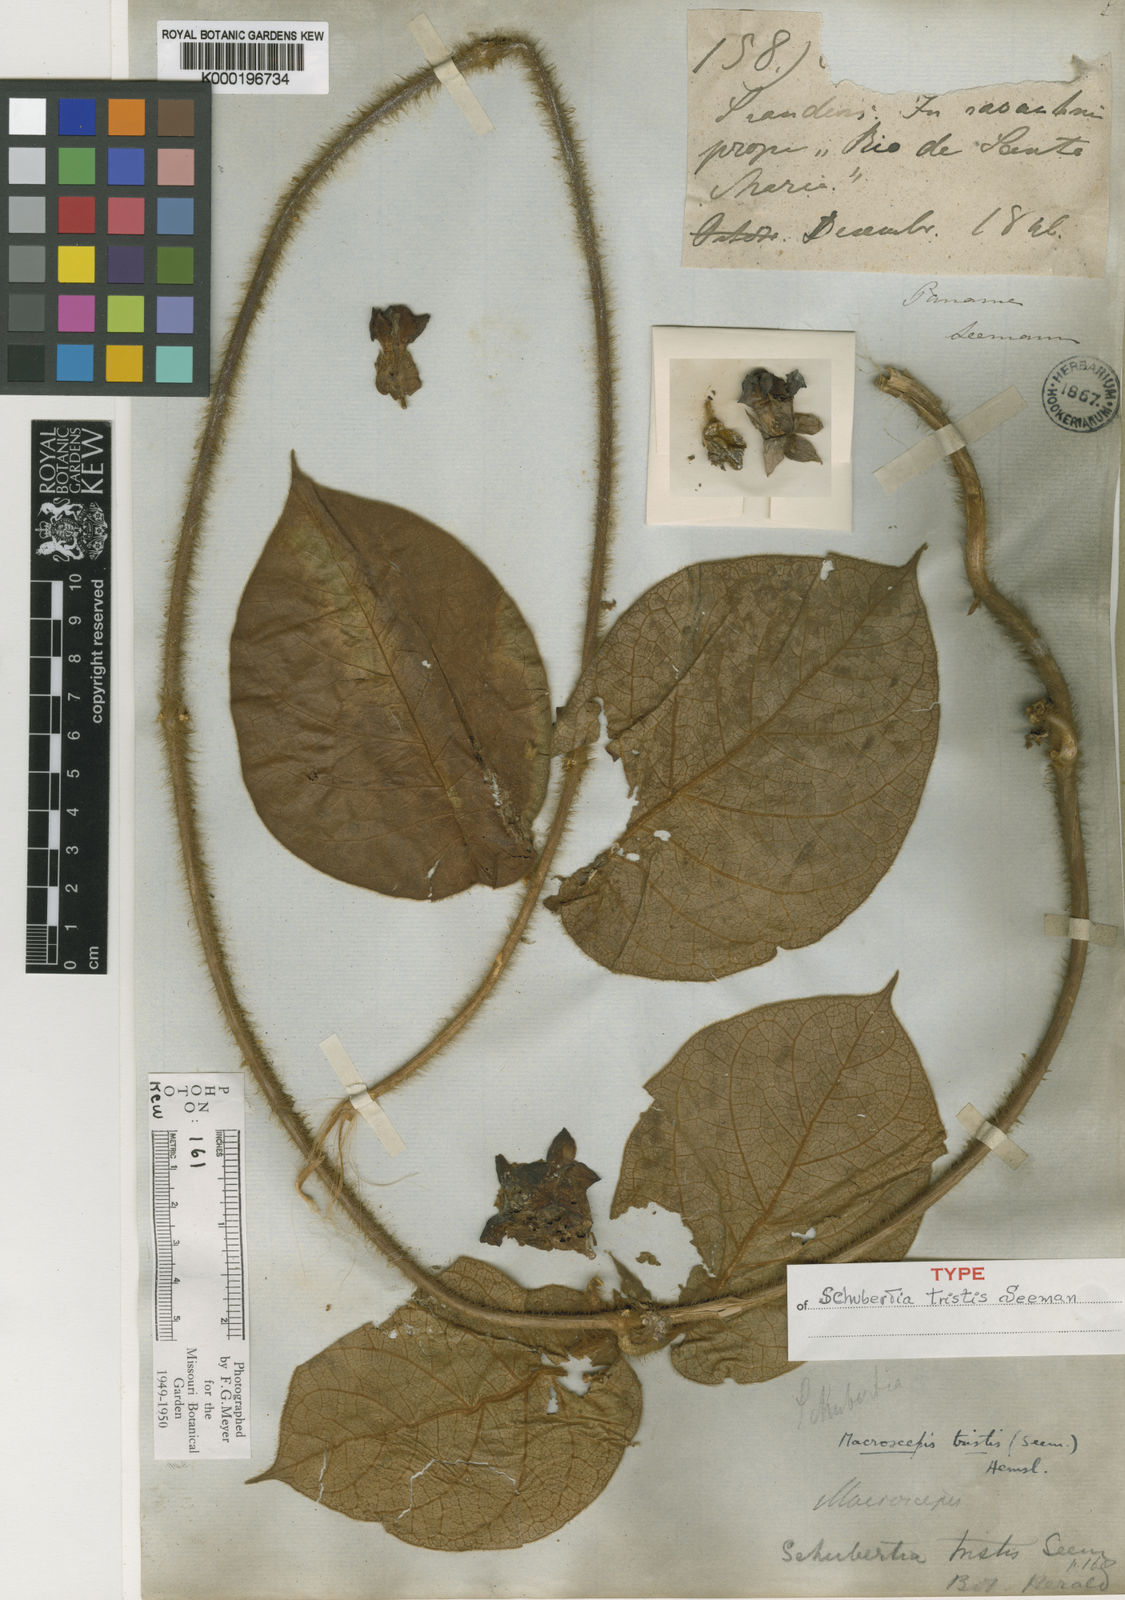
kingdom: Plantae
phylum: Tracheophyta
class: Magnoliopsida
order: Gentianales
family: Apocynaceae
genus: Macroscepis
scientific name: Macroscepis hirsuta
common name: Rattan
